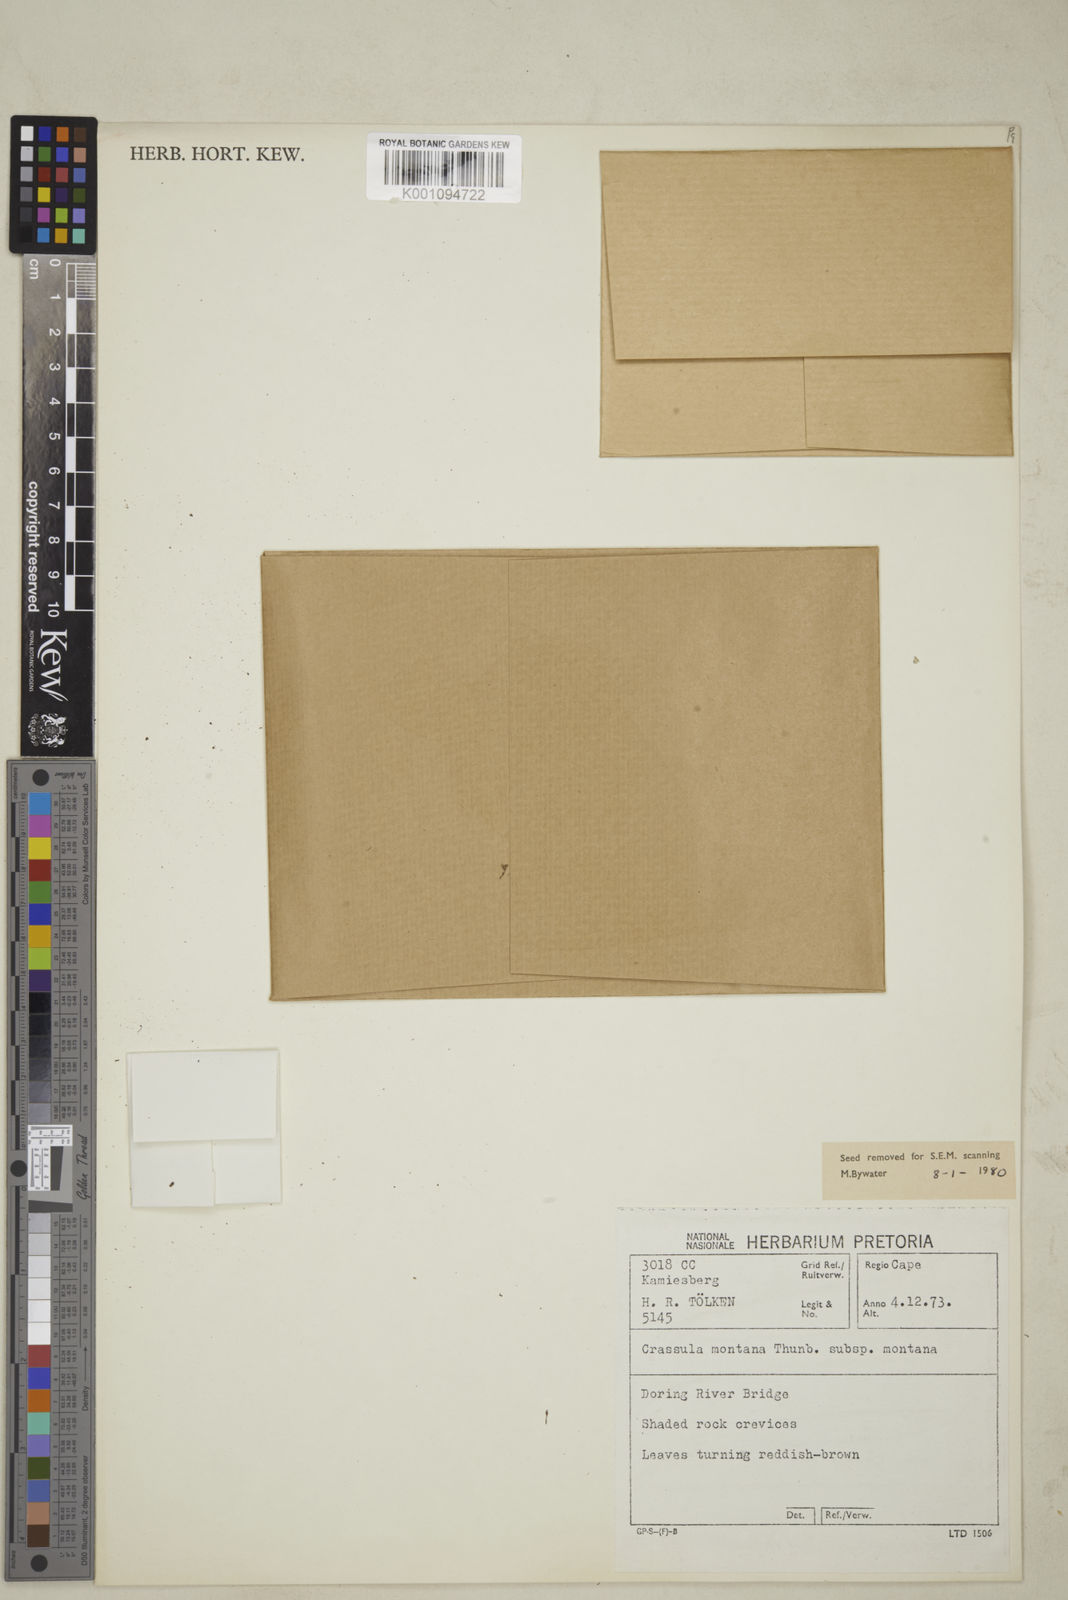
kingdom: Plantae
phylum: Tracheophyta
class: Magnoliopsida
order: Saxifragales
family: Crassulaceae
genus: Crassula
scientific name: Crassula montana
